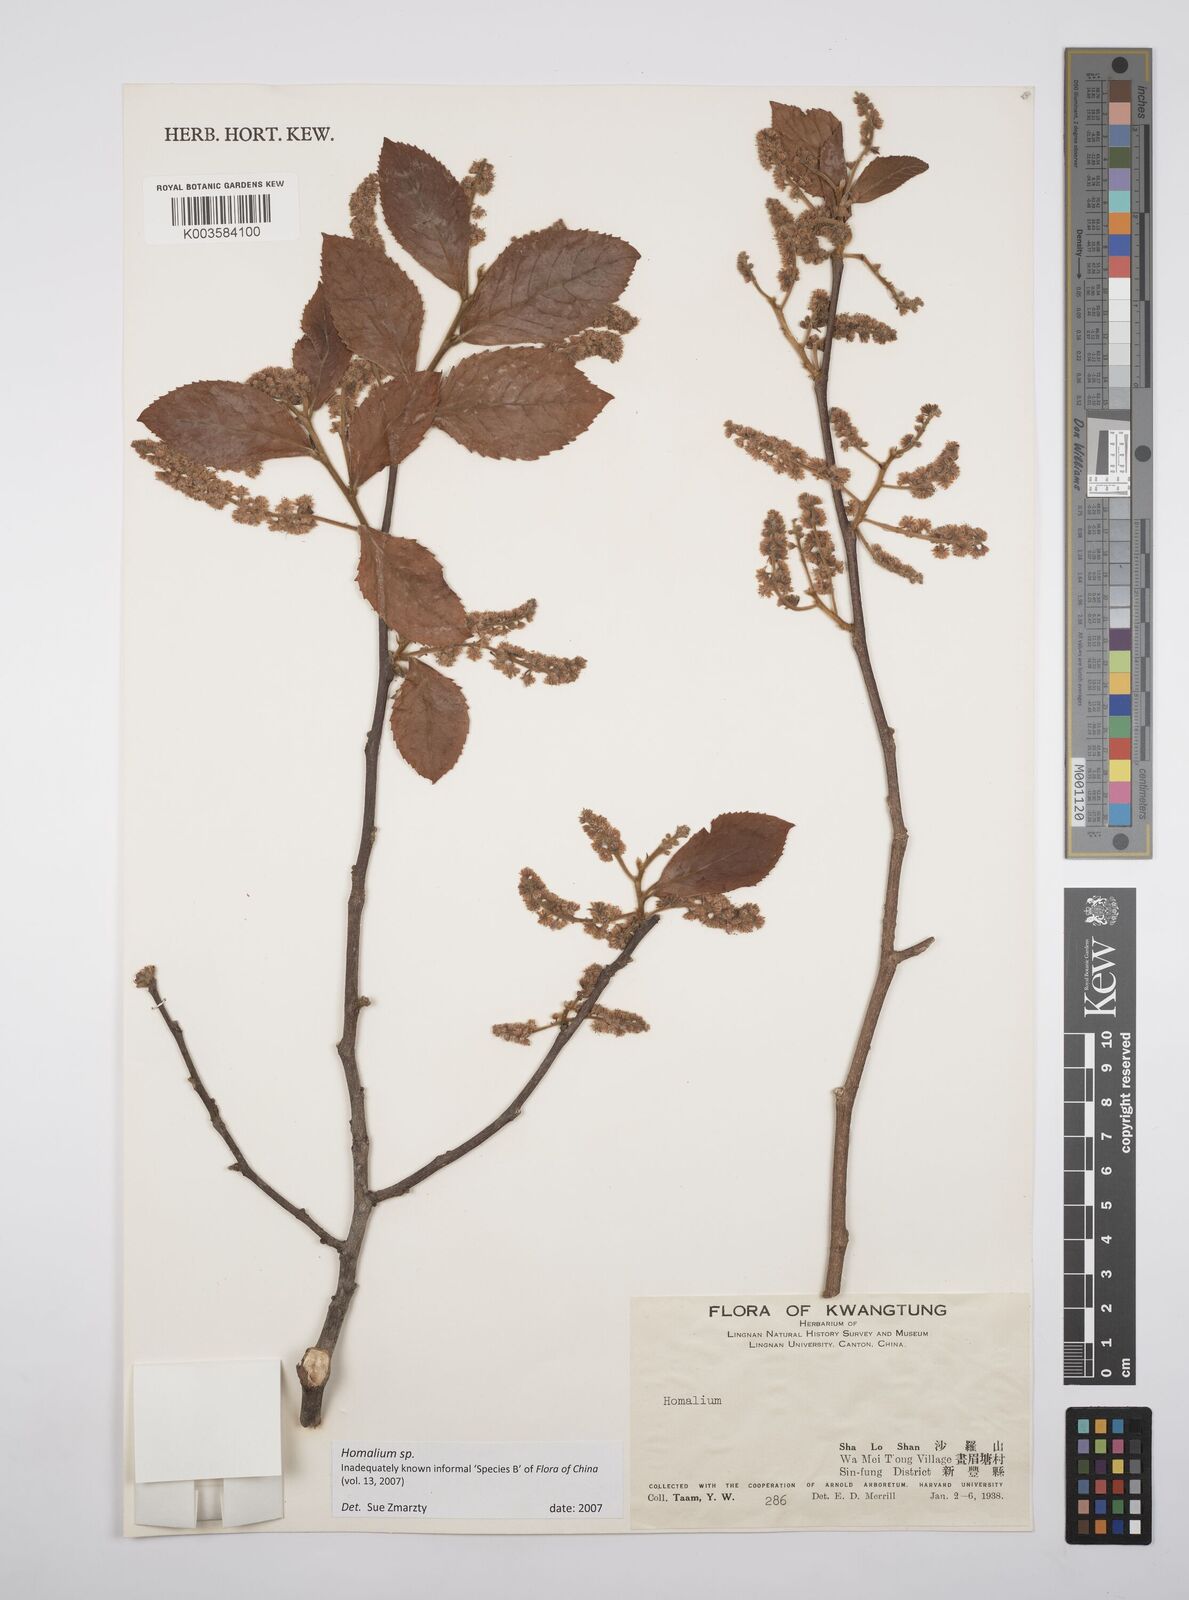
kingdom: Plantae
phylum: Tracheophyta
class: Magnoliopsida
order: Malpighiales
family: Salicaceae
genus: Homalium
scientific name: Homalium
